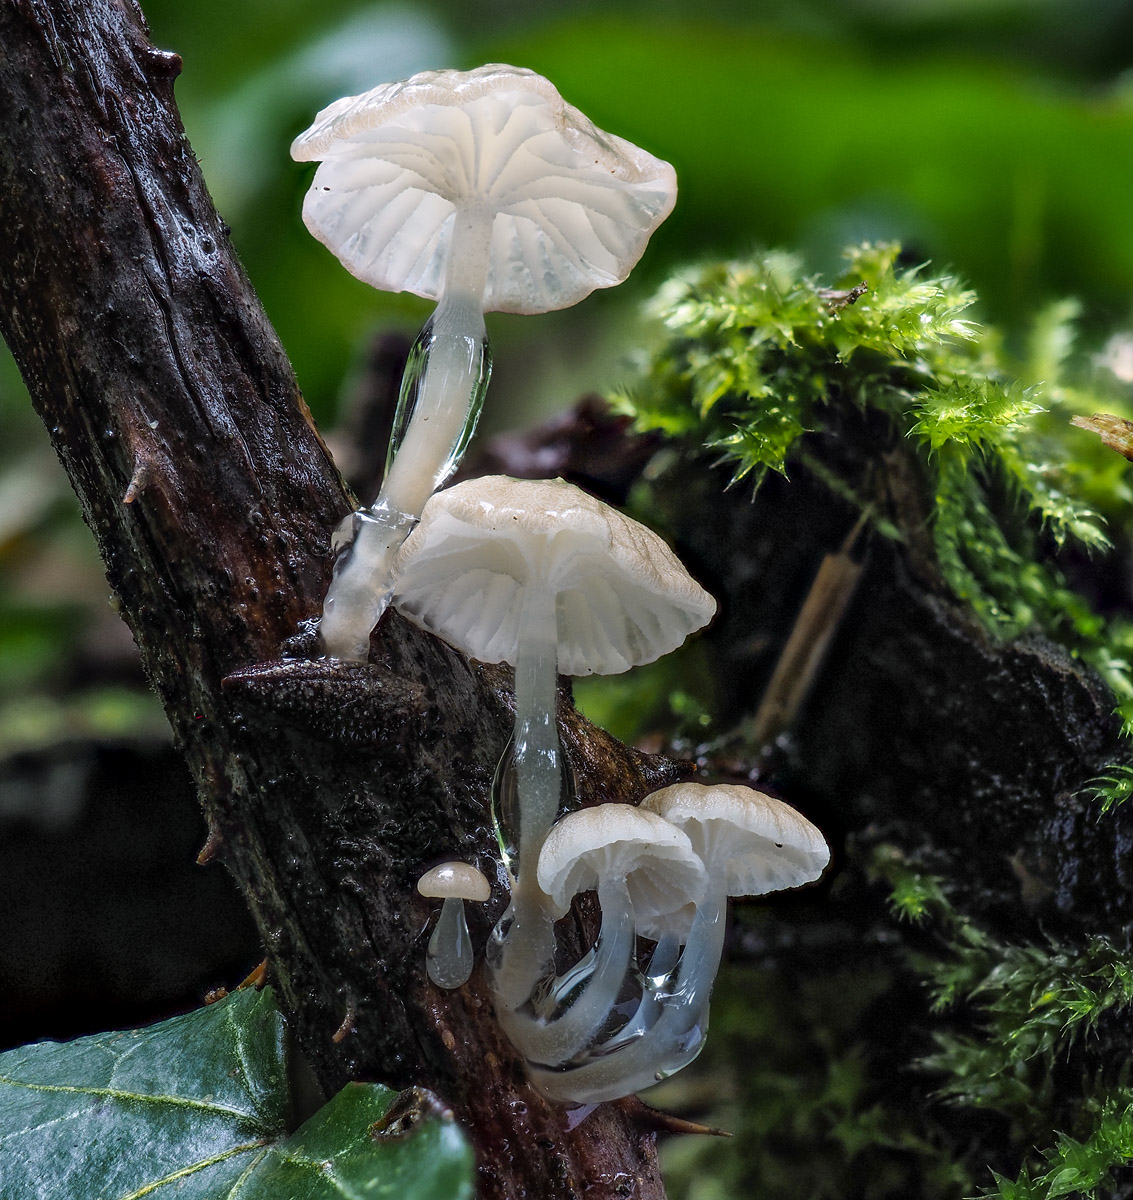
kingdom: Fungi
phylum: Basidiomycota
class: Agaricomycetes
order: Agaricales
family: Mycenaceae
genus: Roridomyces
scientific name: Roridomyces roridus
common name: slimfod
